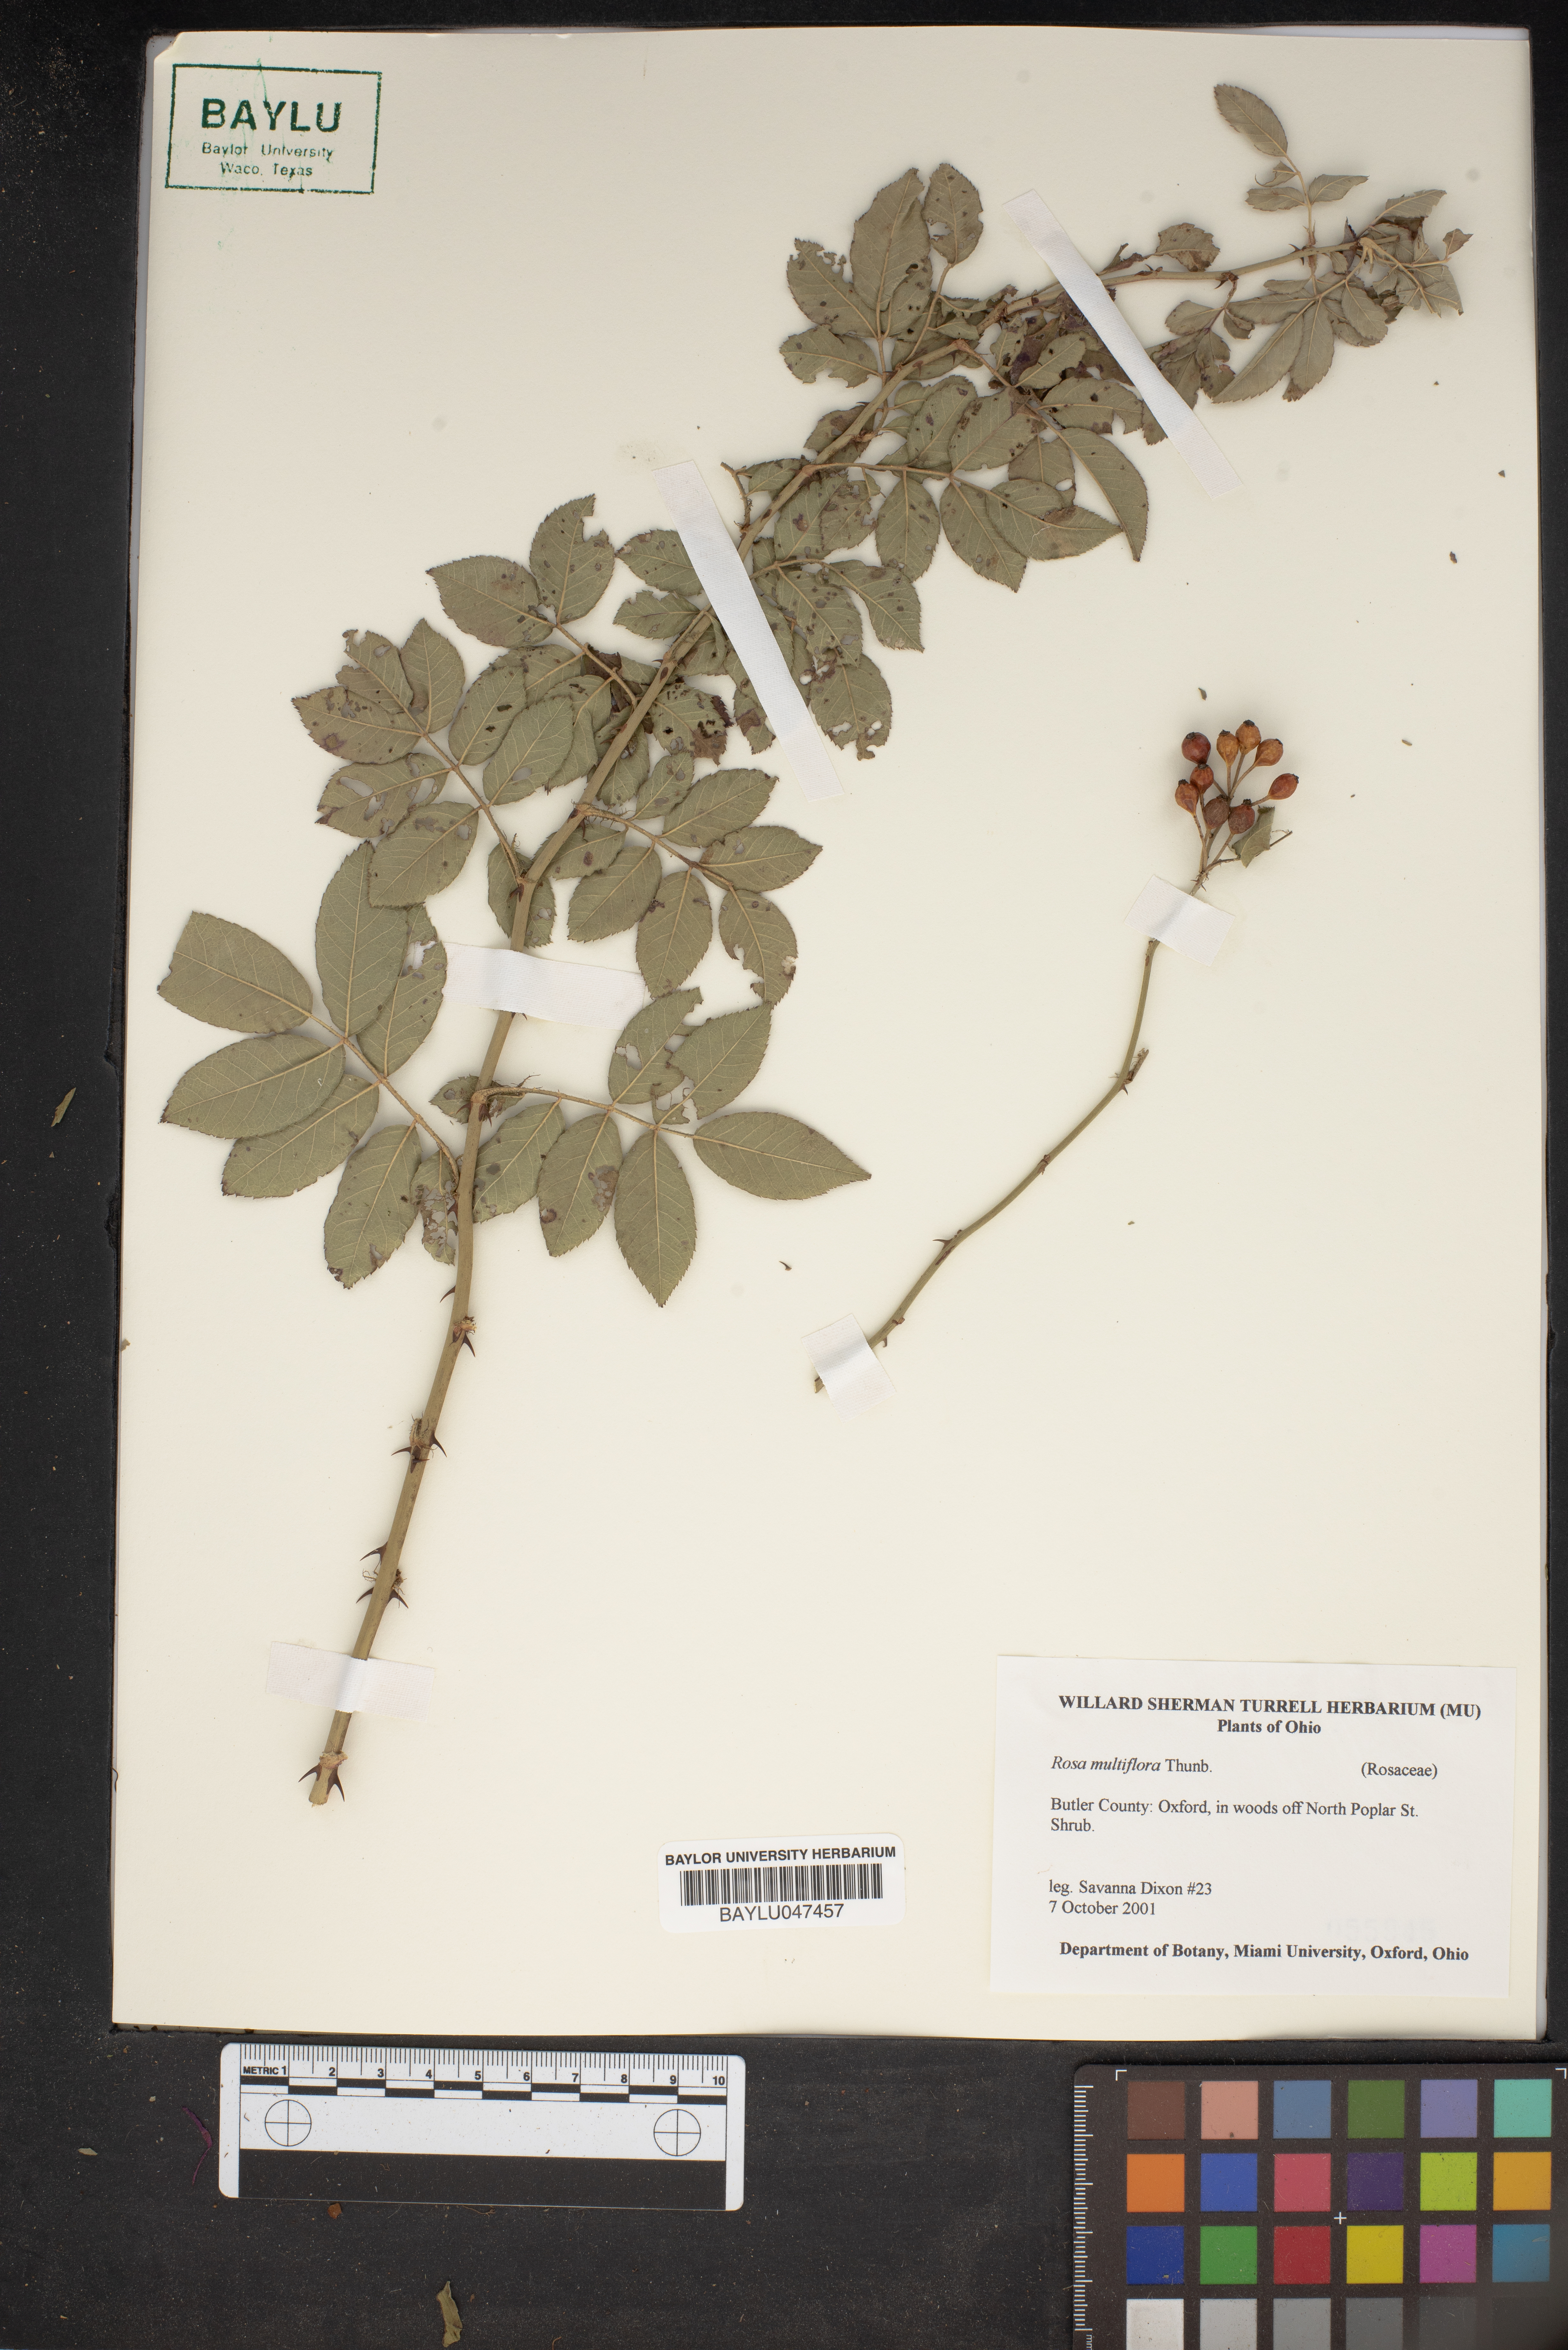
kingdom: Plantae
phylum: Tracheophyta
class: Magnoliopsida
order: Rosales
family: Rosaceae
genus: Rosa
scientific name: Rosa multiflora
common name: Multiflora rose
